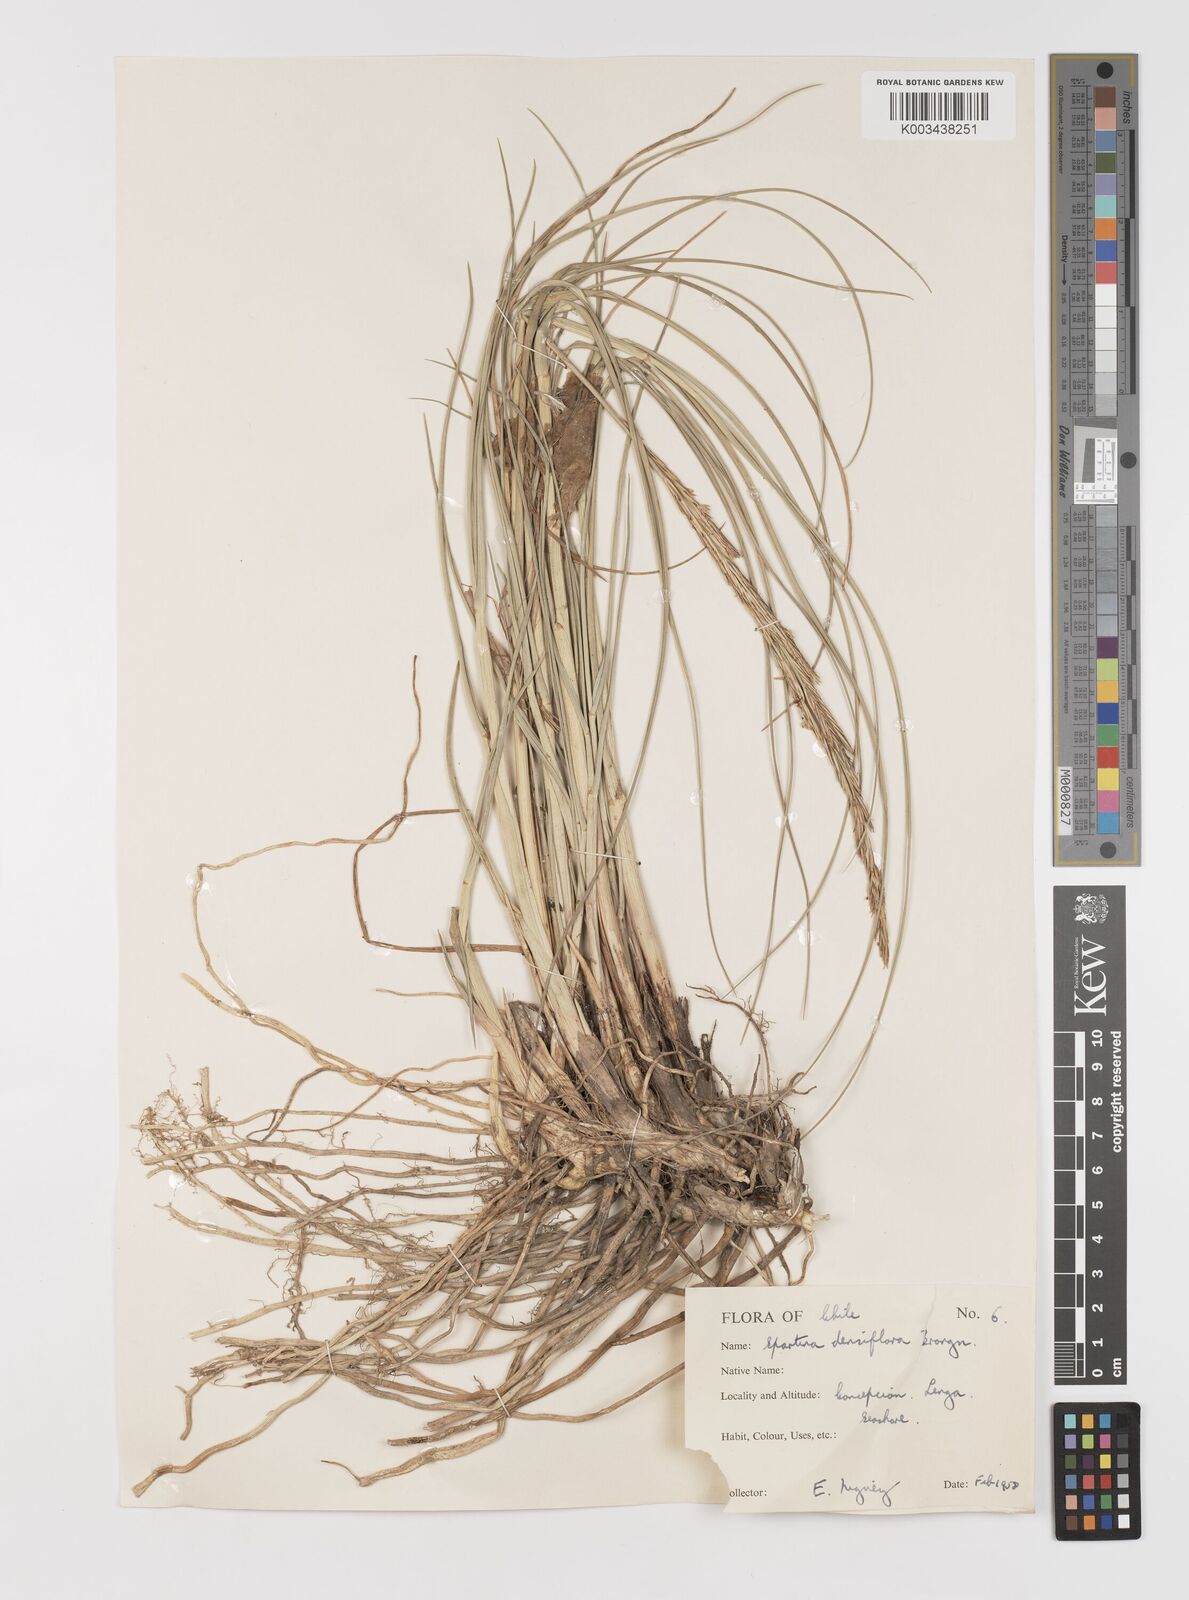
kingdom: Plantae
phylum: Tracheophyta
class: Liliopsida
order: Poales
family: Poaceae
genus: Sporobolus
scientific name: Sporobolus montevidensis
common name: Montevideo dropseed
